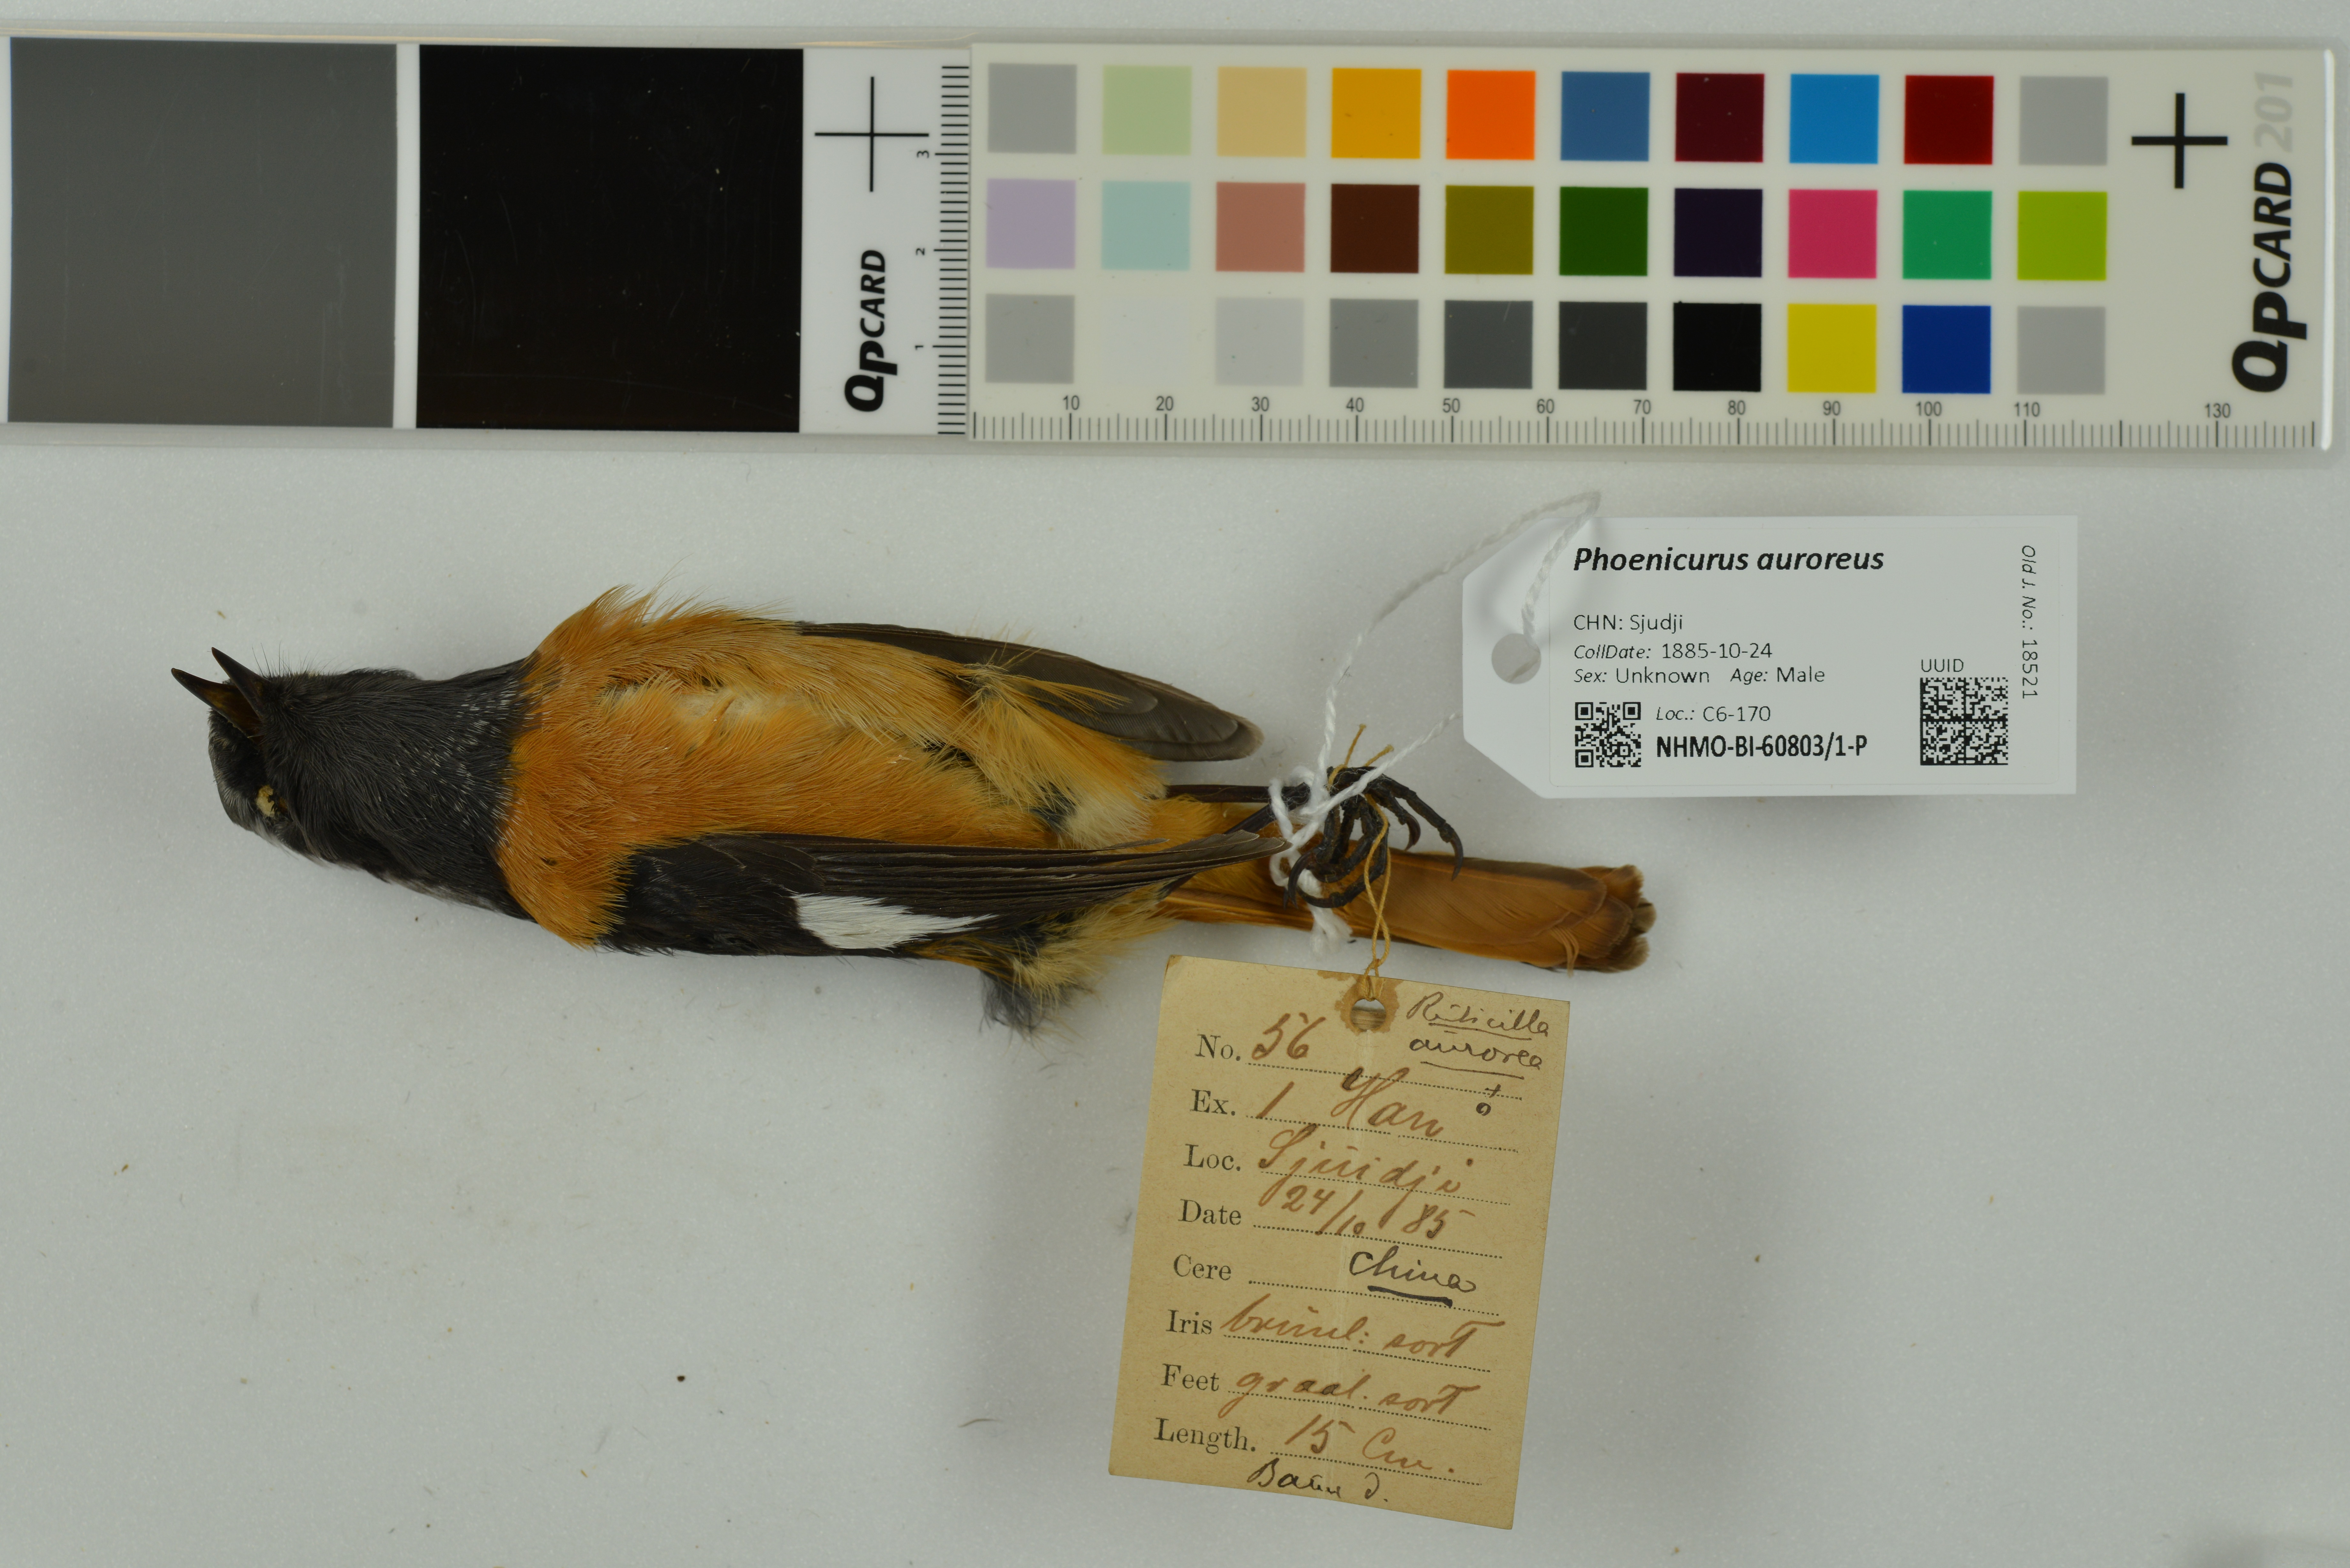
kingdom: Animalia
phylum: Chordata
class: Aves
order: Passeriformes
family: Muscicapidae
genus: Phoenicurus
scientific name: Phoenicurus auroreus
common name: Daurian redstart
